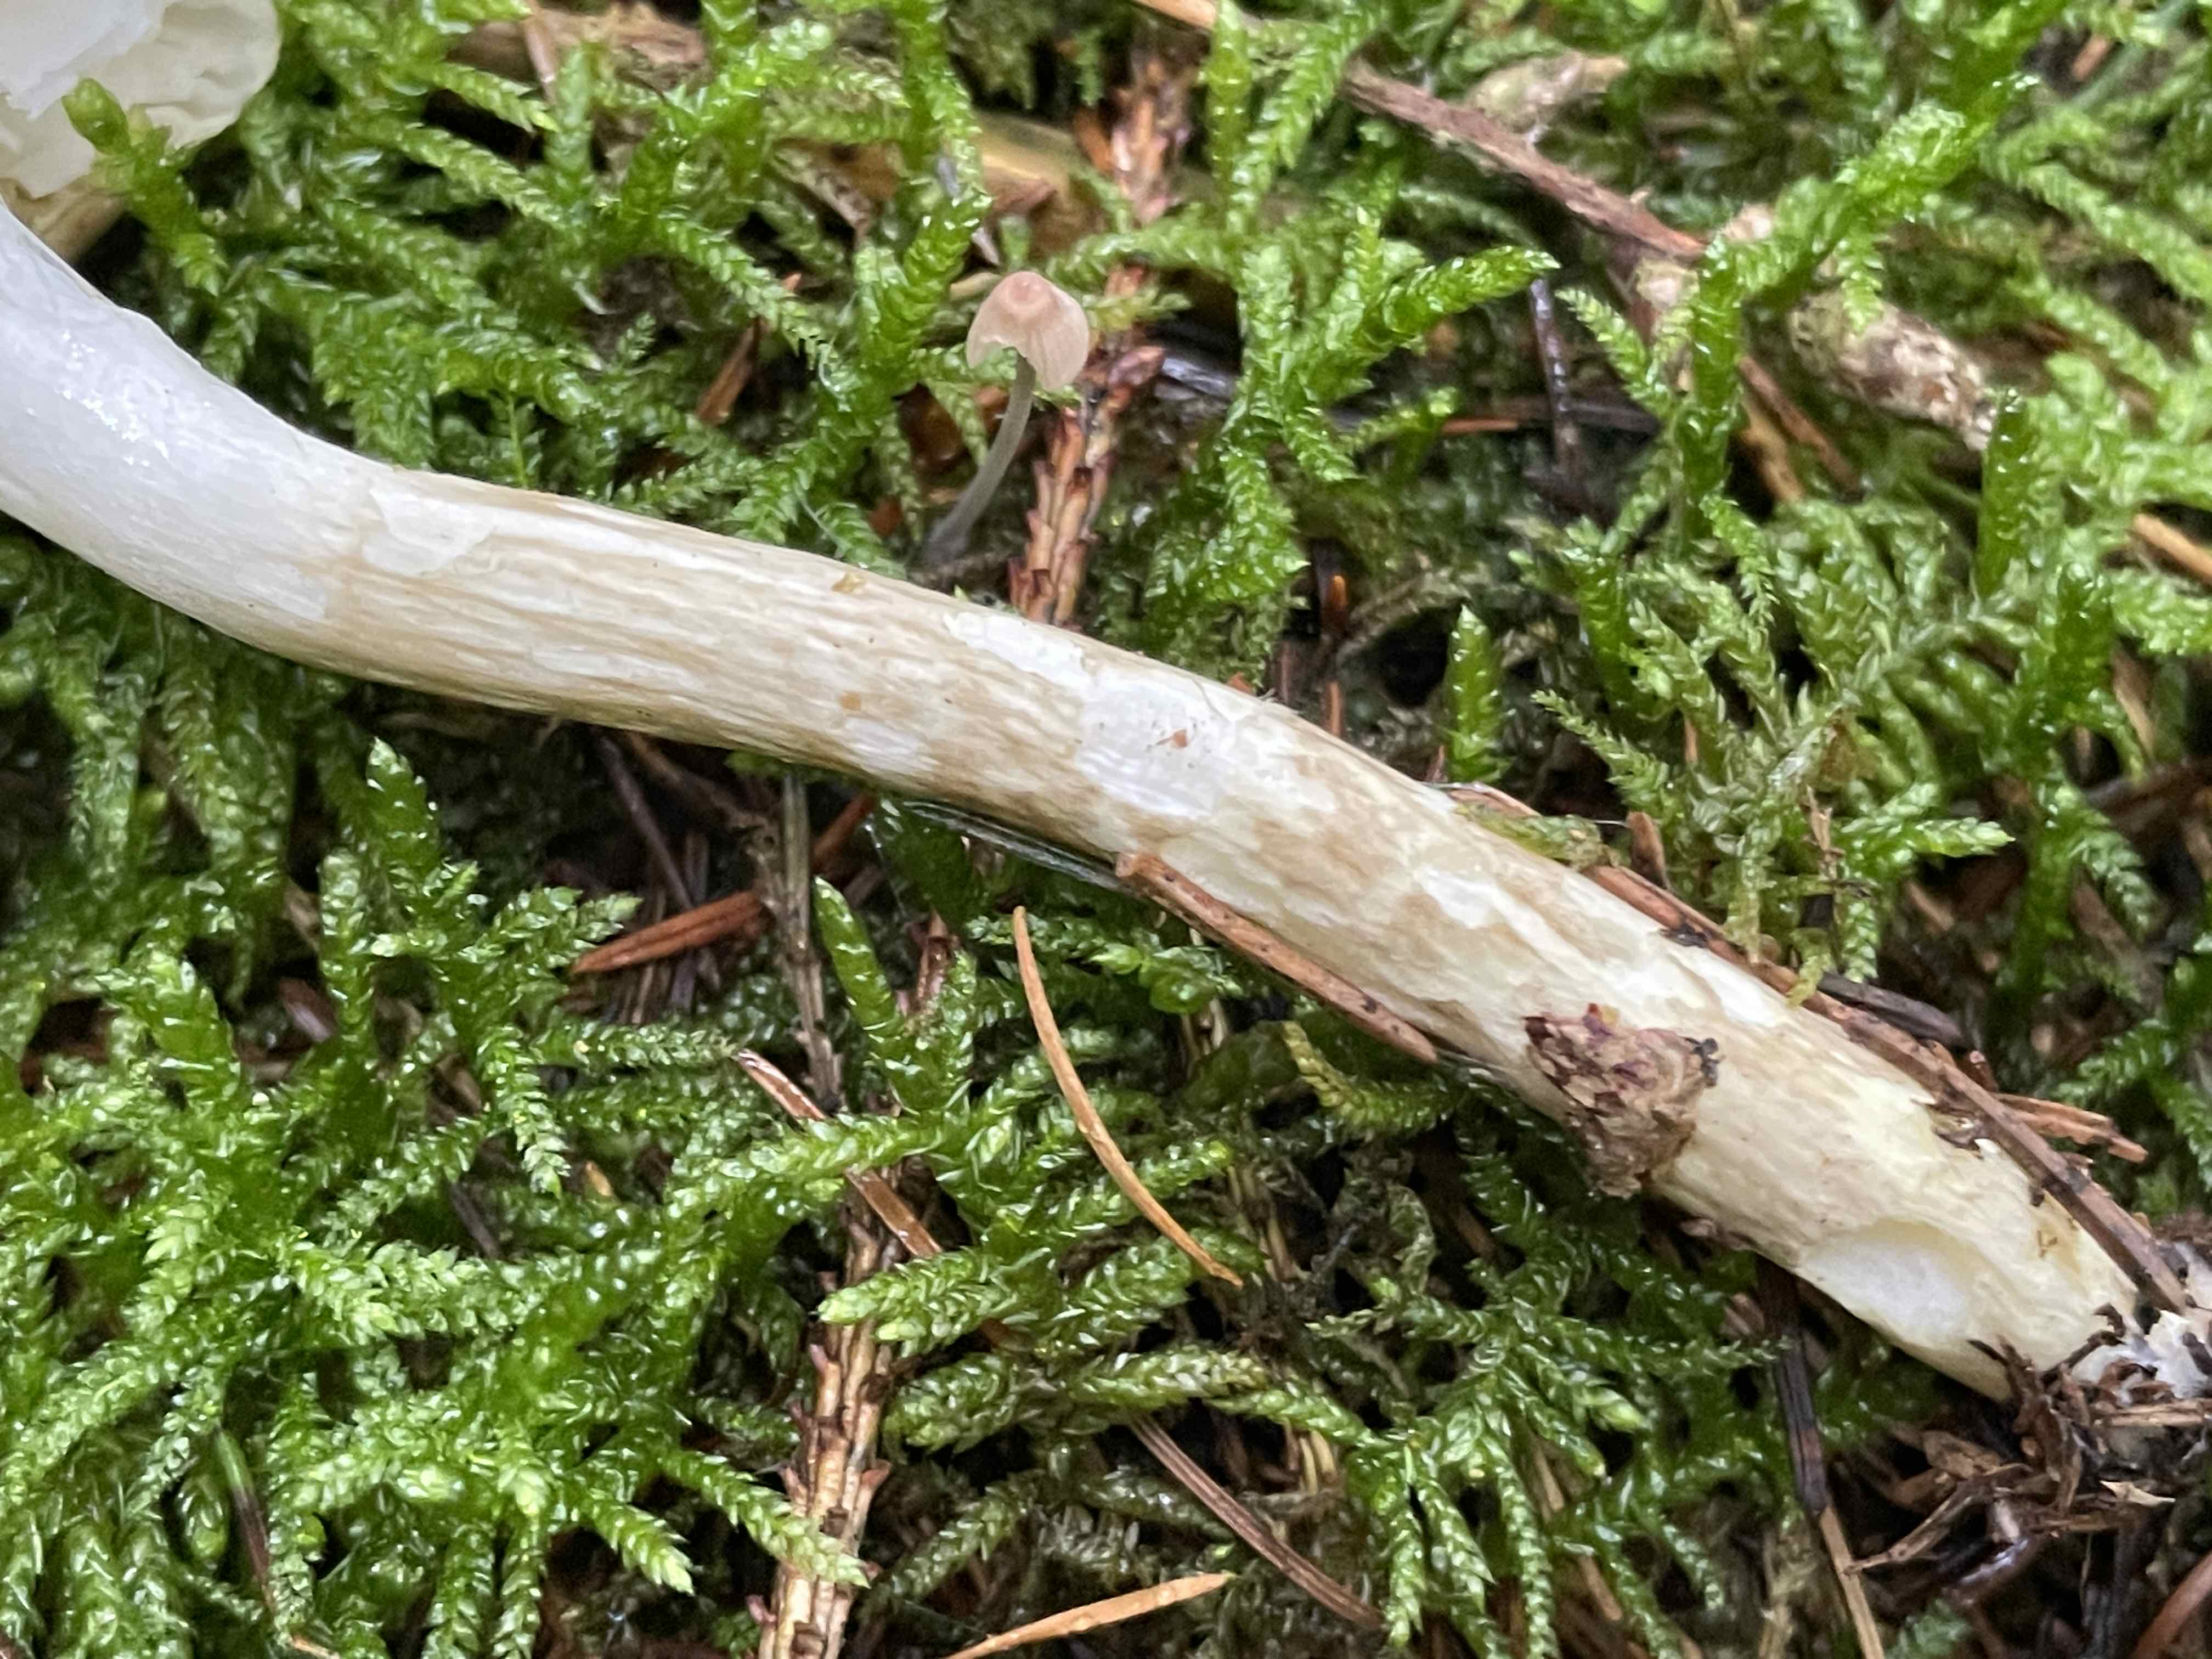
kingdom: Fungi
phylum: Basidiomycota
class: Agaricomycetes
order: Agaricales
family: Hygrophoraceae
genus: Hygrophorus
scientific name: Hygrophorus olivaceoalbus
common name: hvidbrun sneglehat
